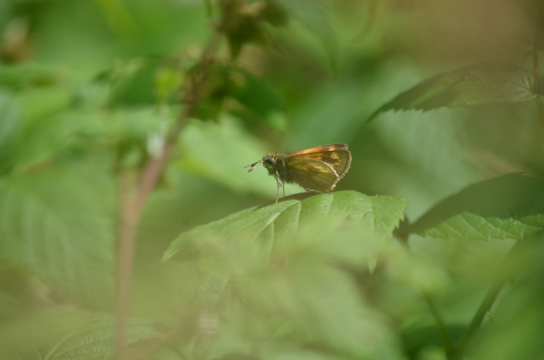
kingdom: Animalia
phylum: Arthropoda
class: Insecta
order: Lepidoptera
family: Hesperiidae
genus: Polites
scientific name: Polites themistocles
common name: Tawny-edged Skipper
